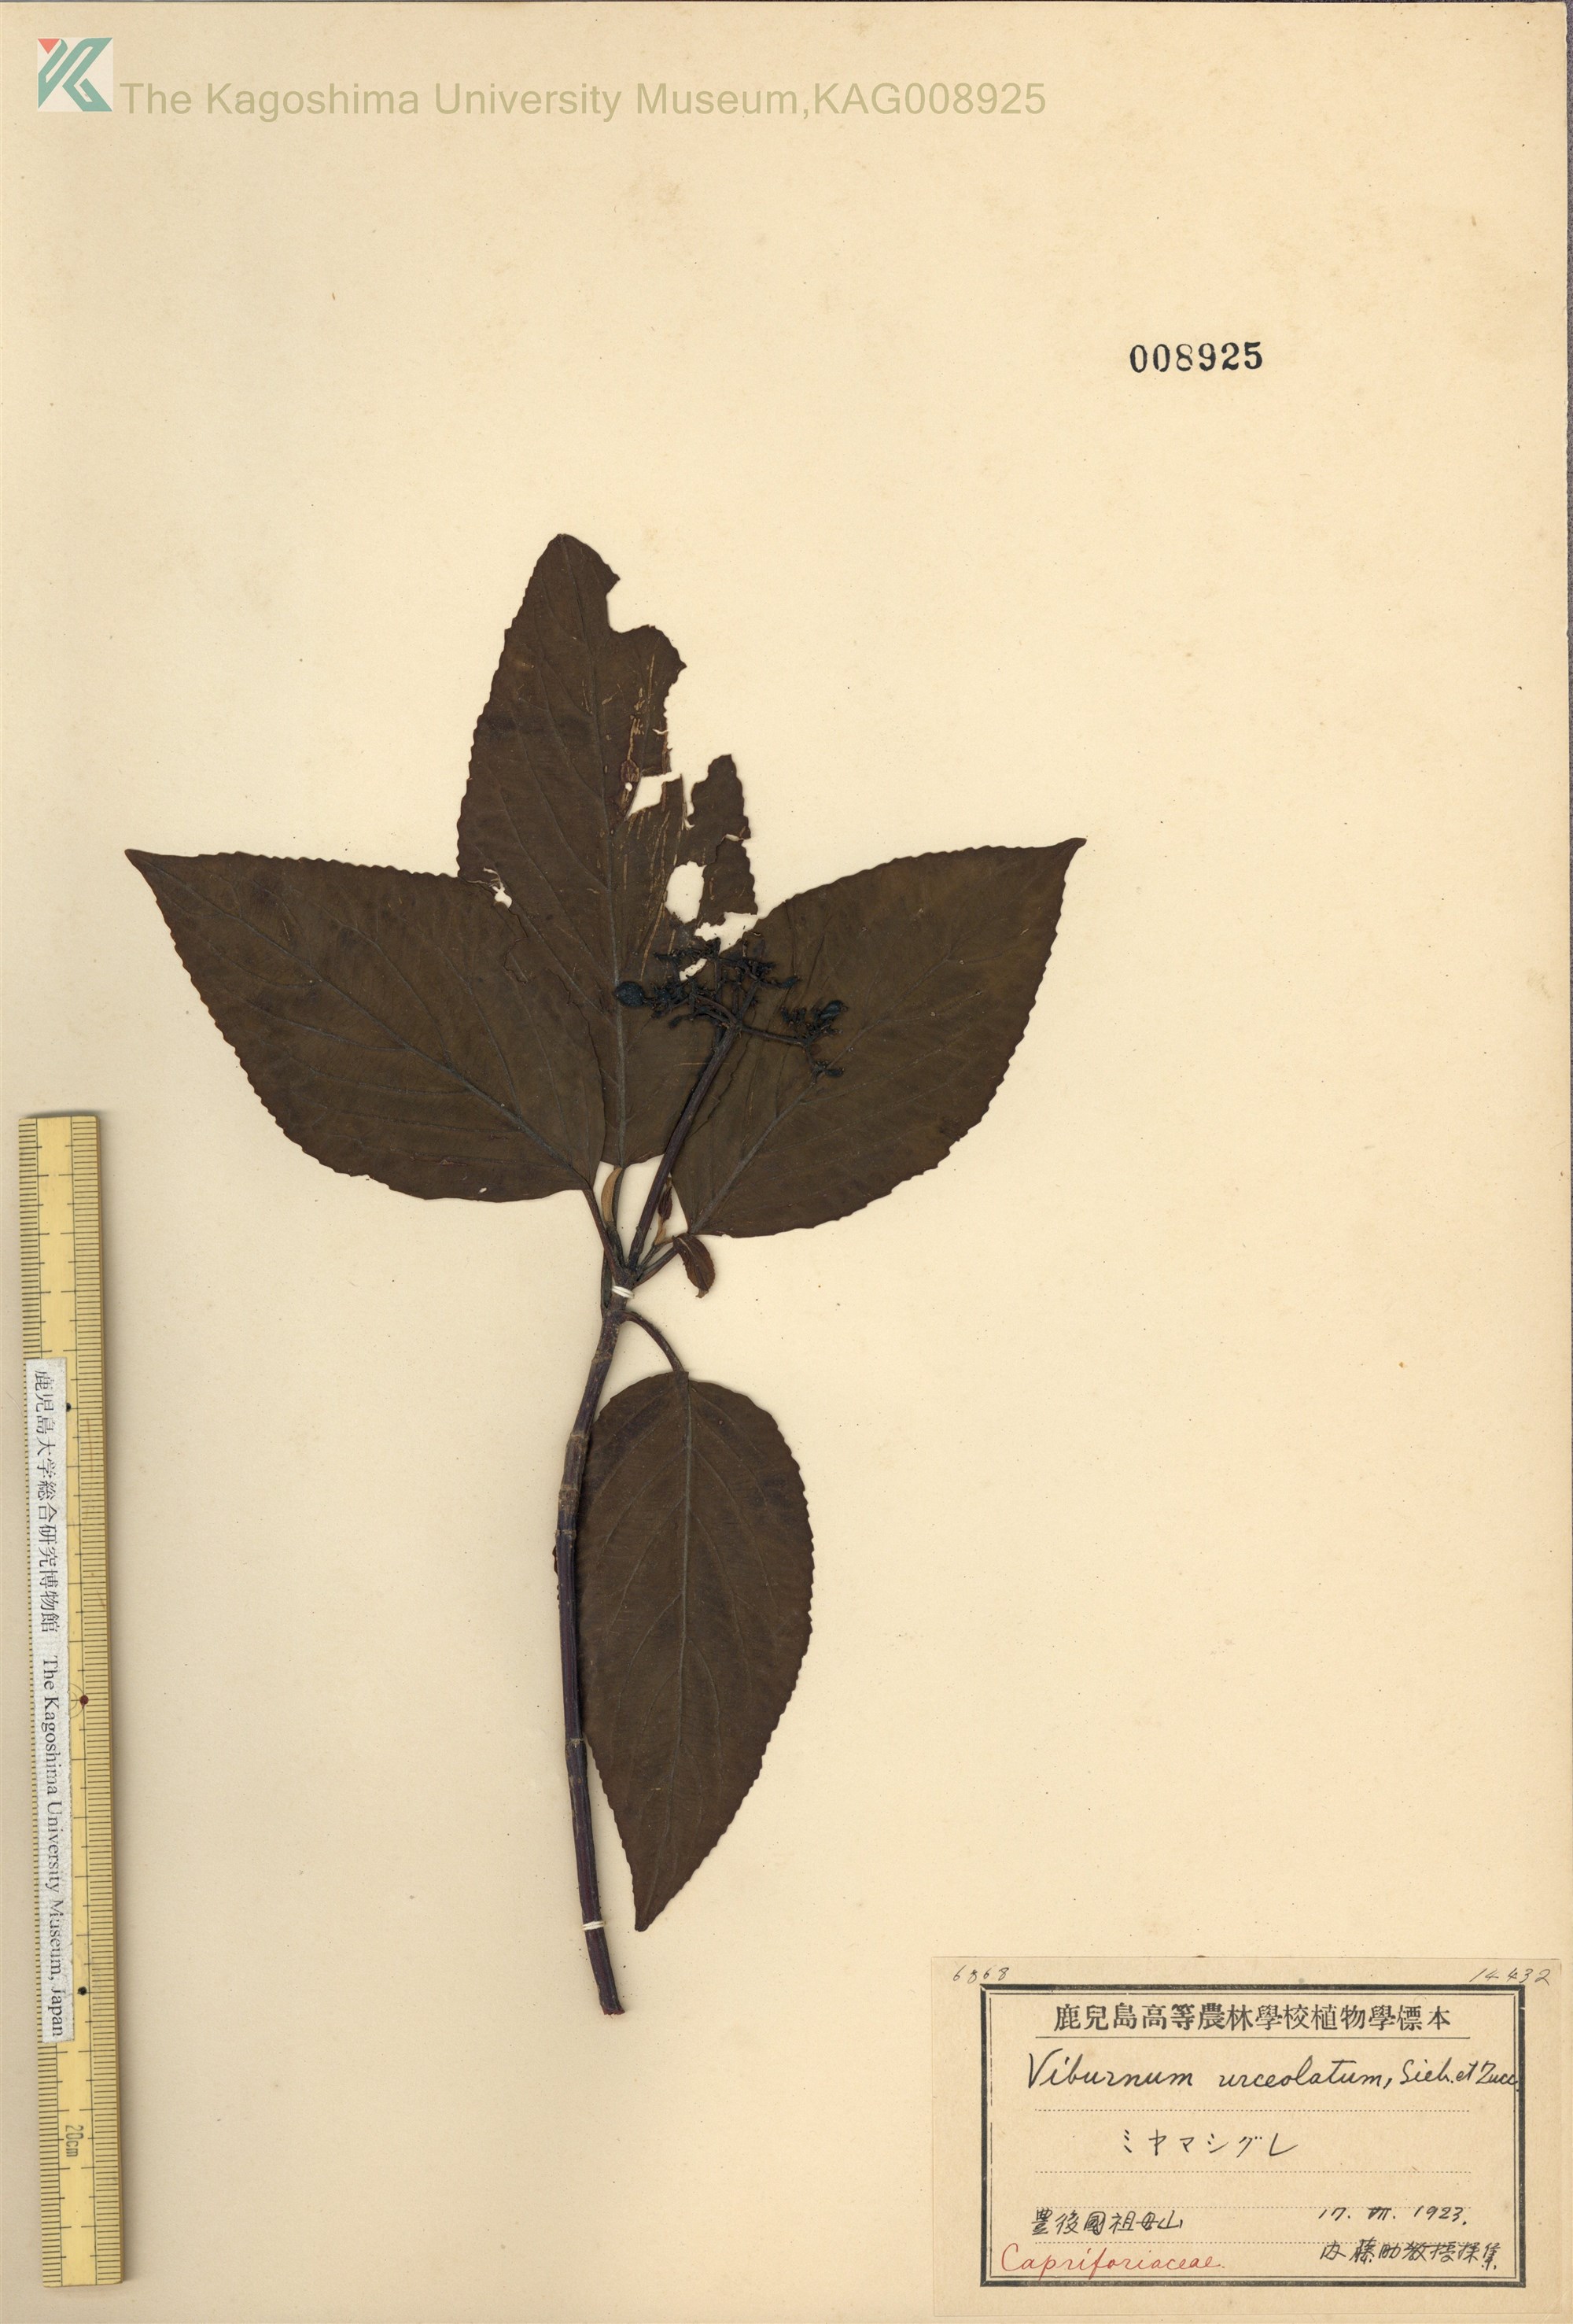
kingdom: Plantae
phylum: Tracheophyta
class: Magnoliopsida
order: Dipsacales
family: Viburnaceae
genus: Viburnum
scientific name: Viburnum urceolatum
